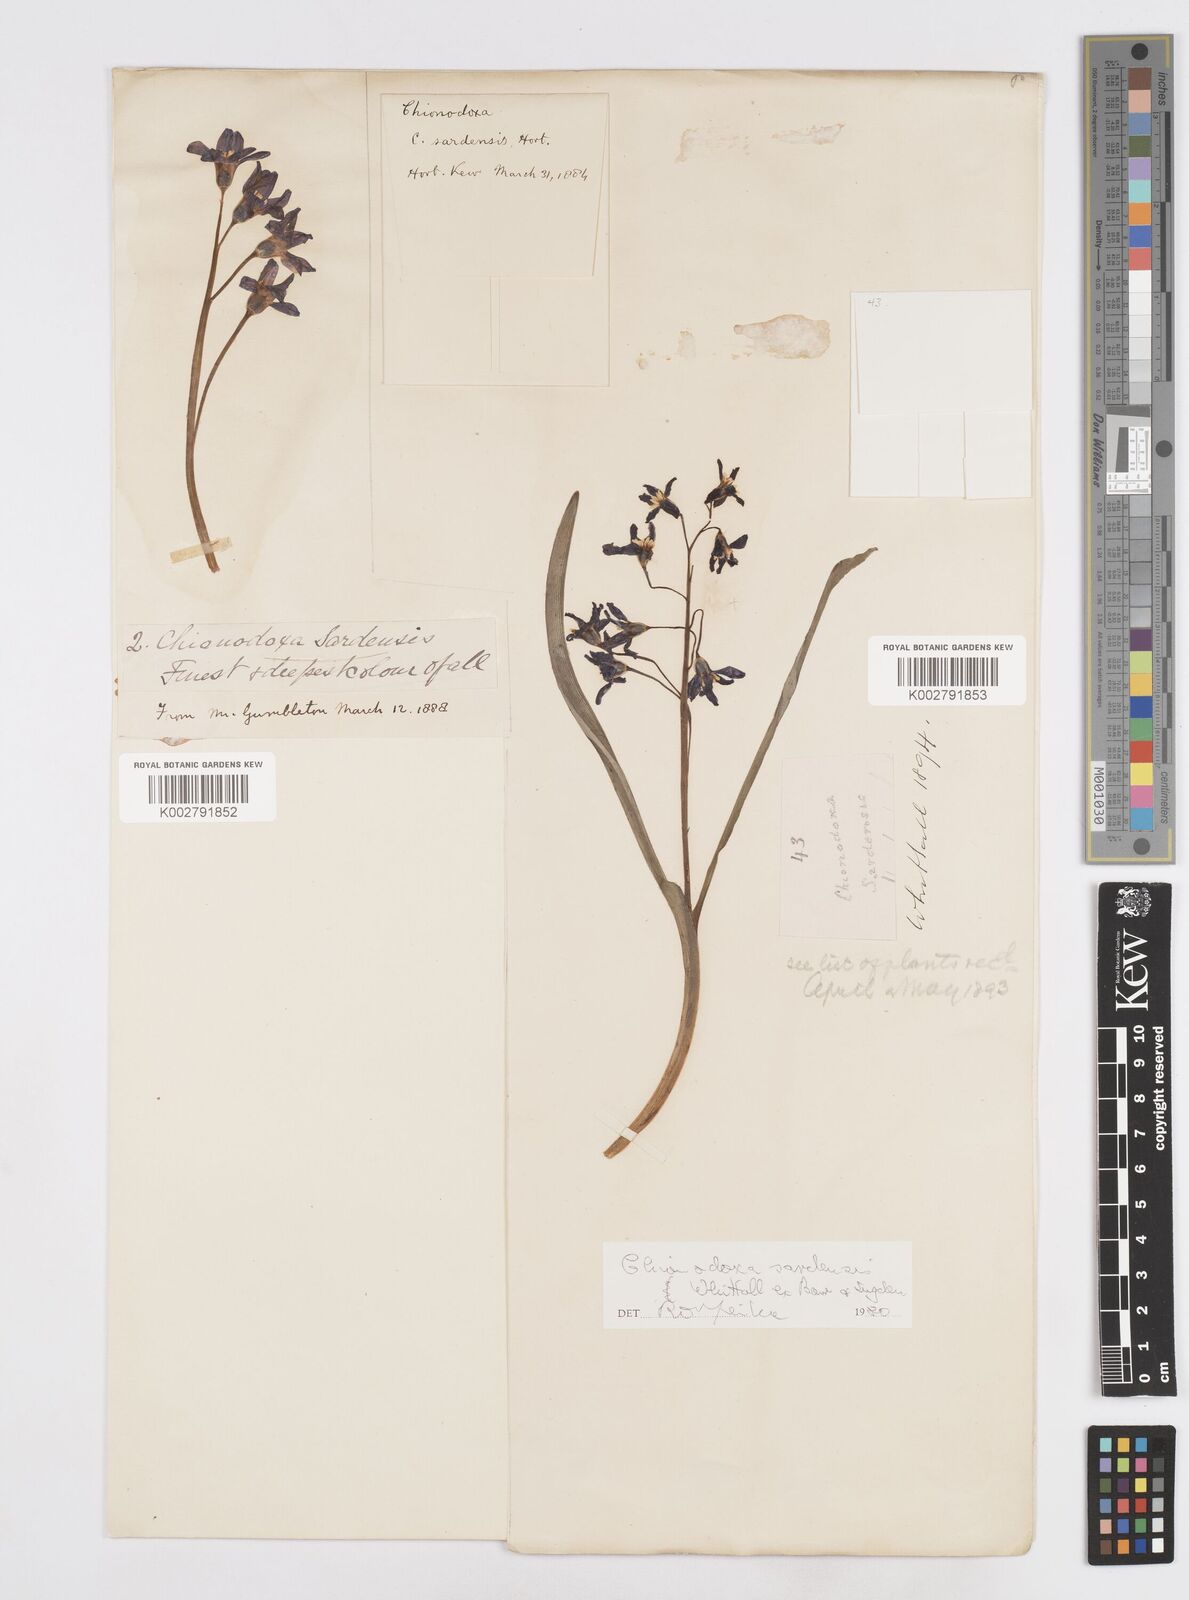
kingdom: Plantae
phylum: Tracheophyta
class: Liliopsida
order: Asparagales
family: Asparagaceae
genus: Scilla
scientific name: Scilla sardensis
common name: Lesser glory-of-the-snow
